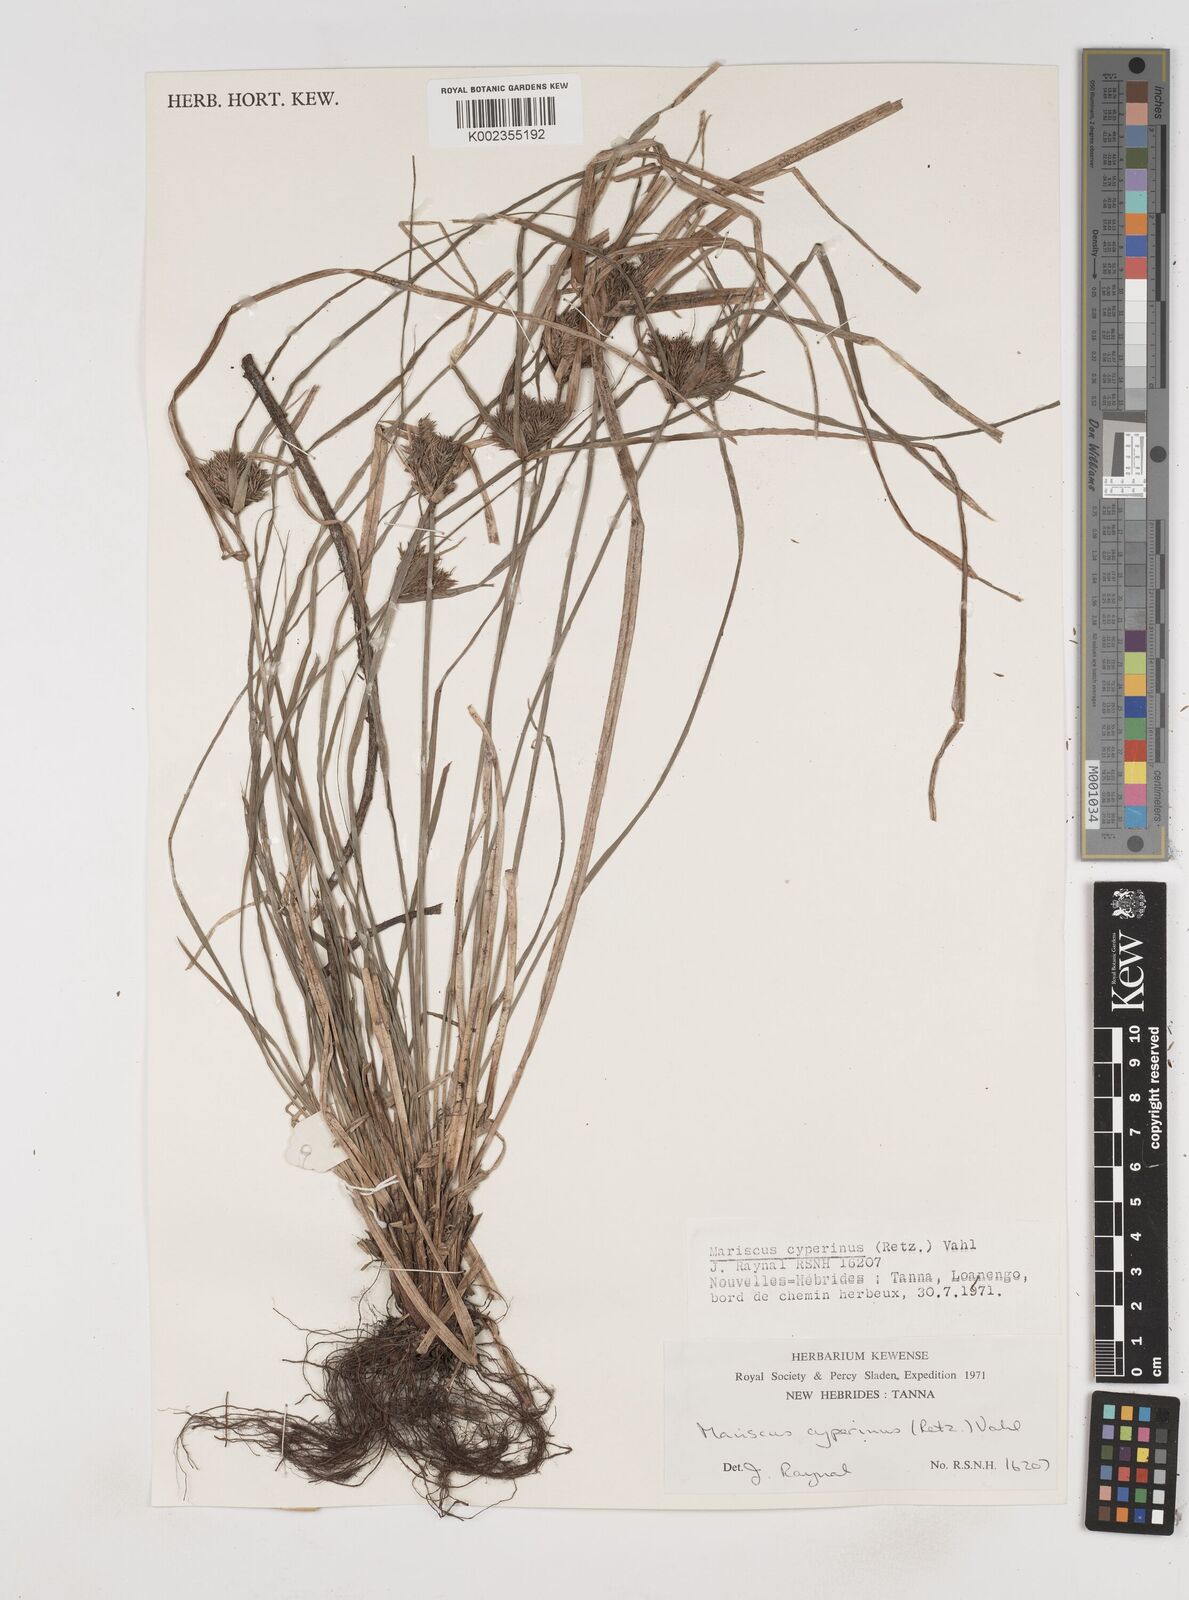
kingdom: Plantae
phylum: Tracheophyta
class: Liliopsida
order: Poales
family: Cyperaceae
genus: Cyperus
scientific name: Cyperus cyperinus
